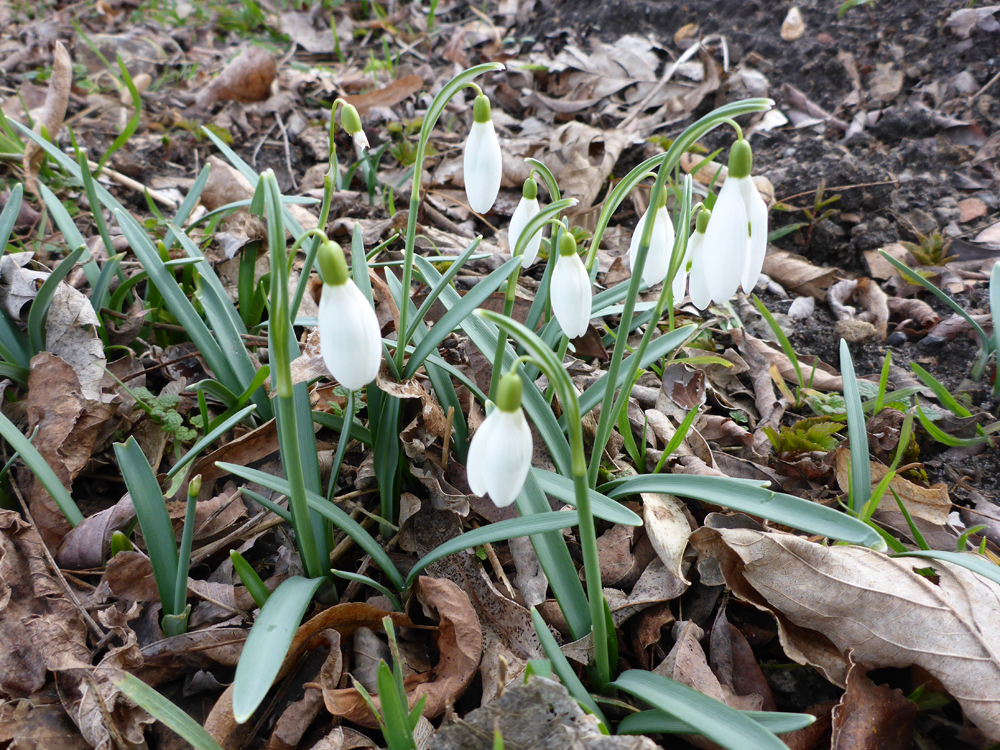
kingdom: Plantae
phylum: Tracheophyta
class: Liliopsida
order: Asparagales
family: Amaryllidaceae
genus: Galanthus
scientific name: Galanthus nivalis
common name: Snowdrop
